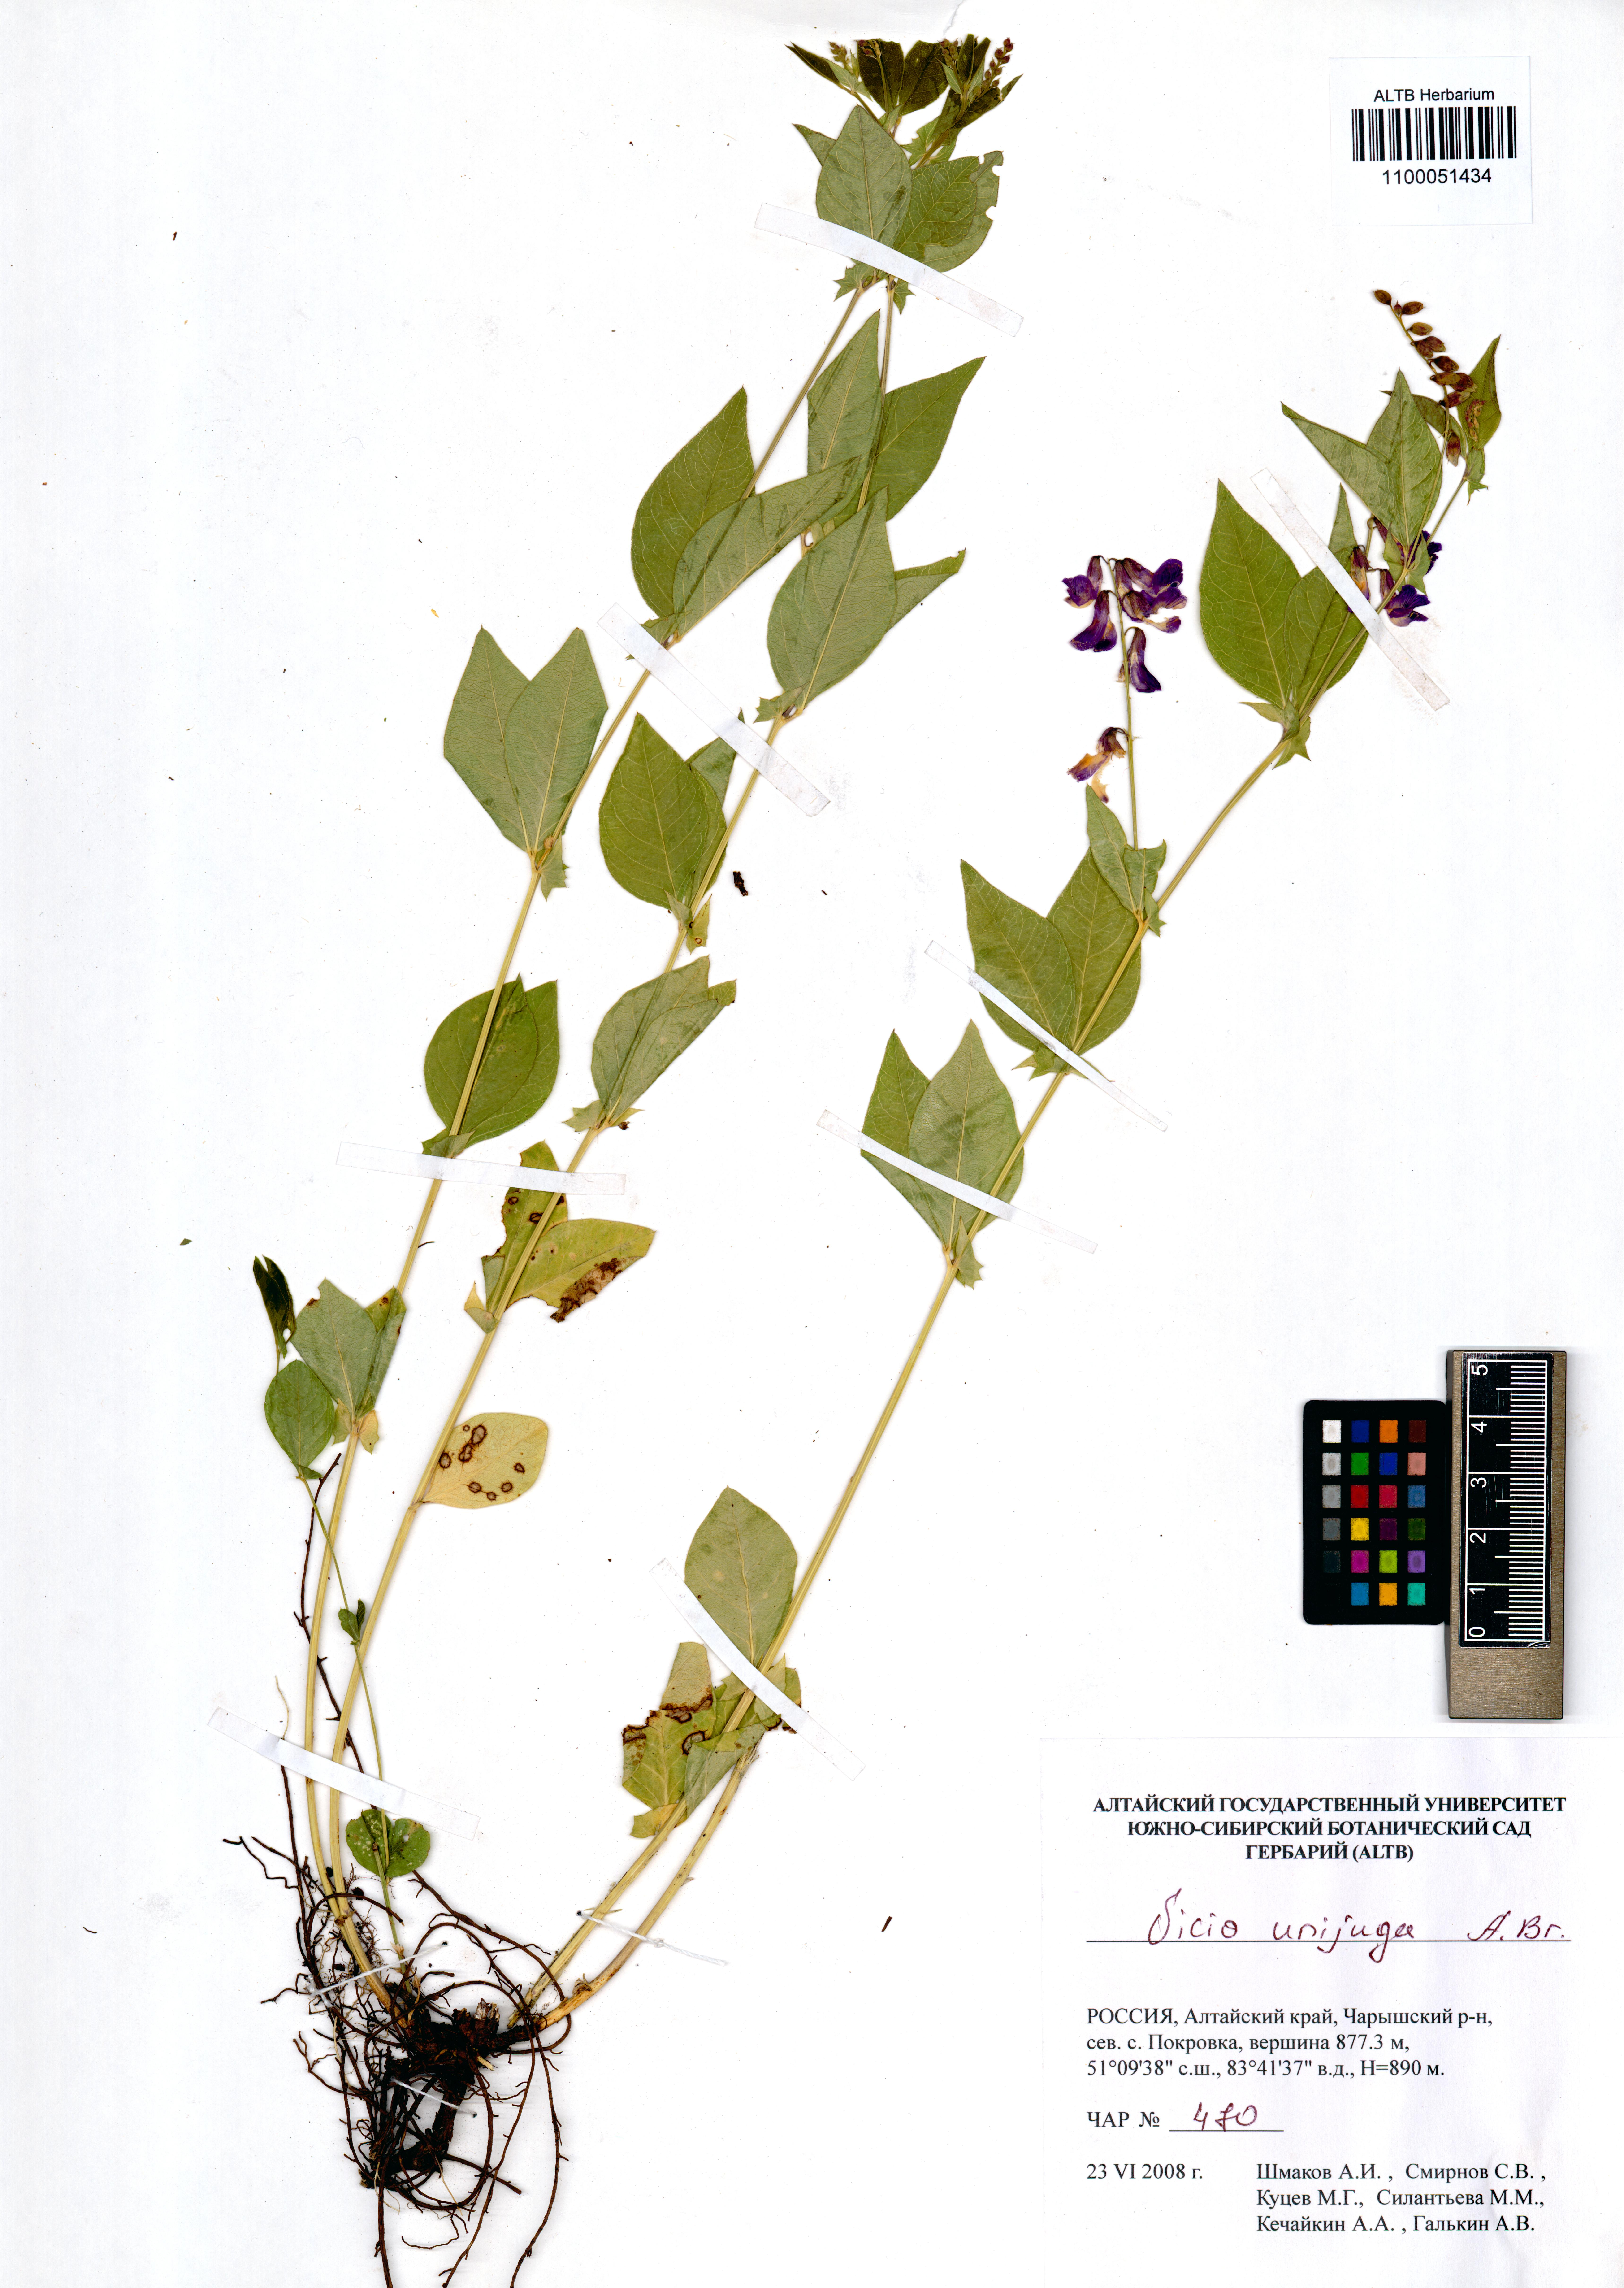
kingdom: Plantae
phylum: Tracheophyta
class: Magnoliopsida
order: Fabales
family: Fabaceae
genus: Vicia
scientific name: Vicia unijuga
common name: Two-leaf vetch
